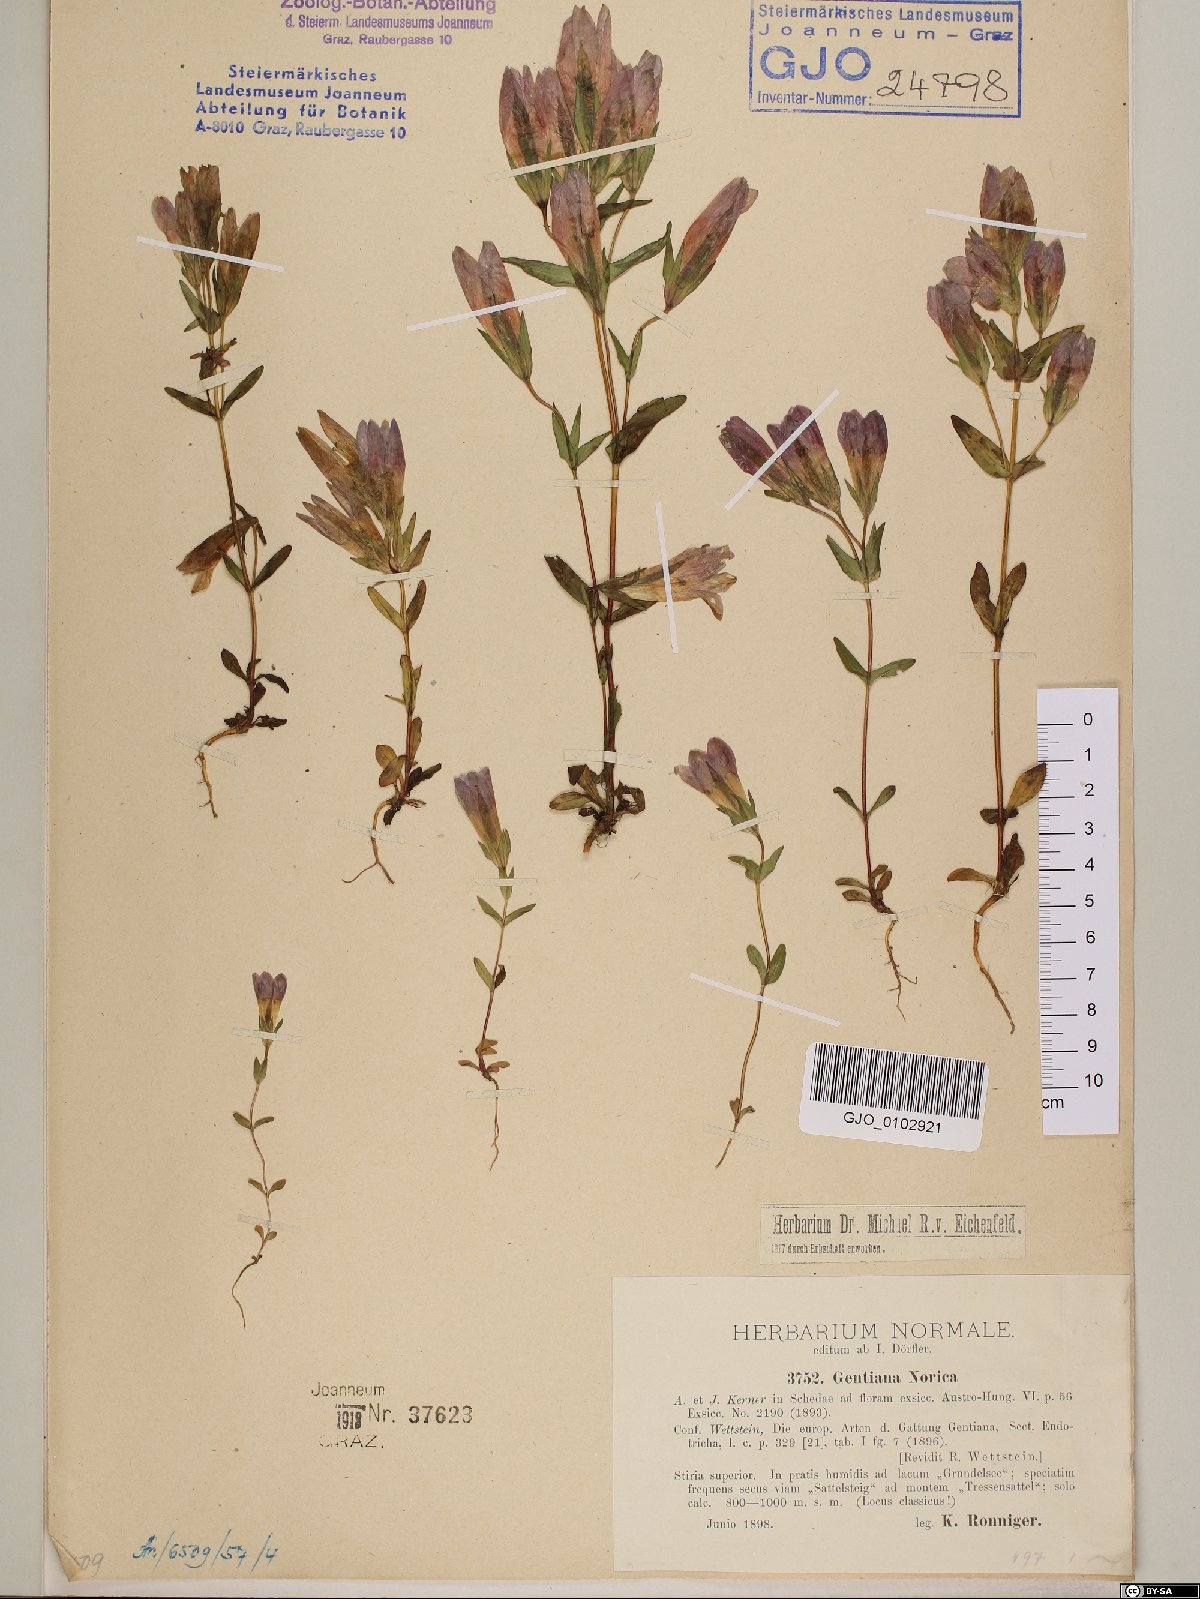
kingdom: Plantae
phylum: Tracheophyta
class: Magnoliopsida
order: Gentianales
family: Gentianaceae
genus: Gentianella
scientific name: Gentianella obtusifolia
